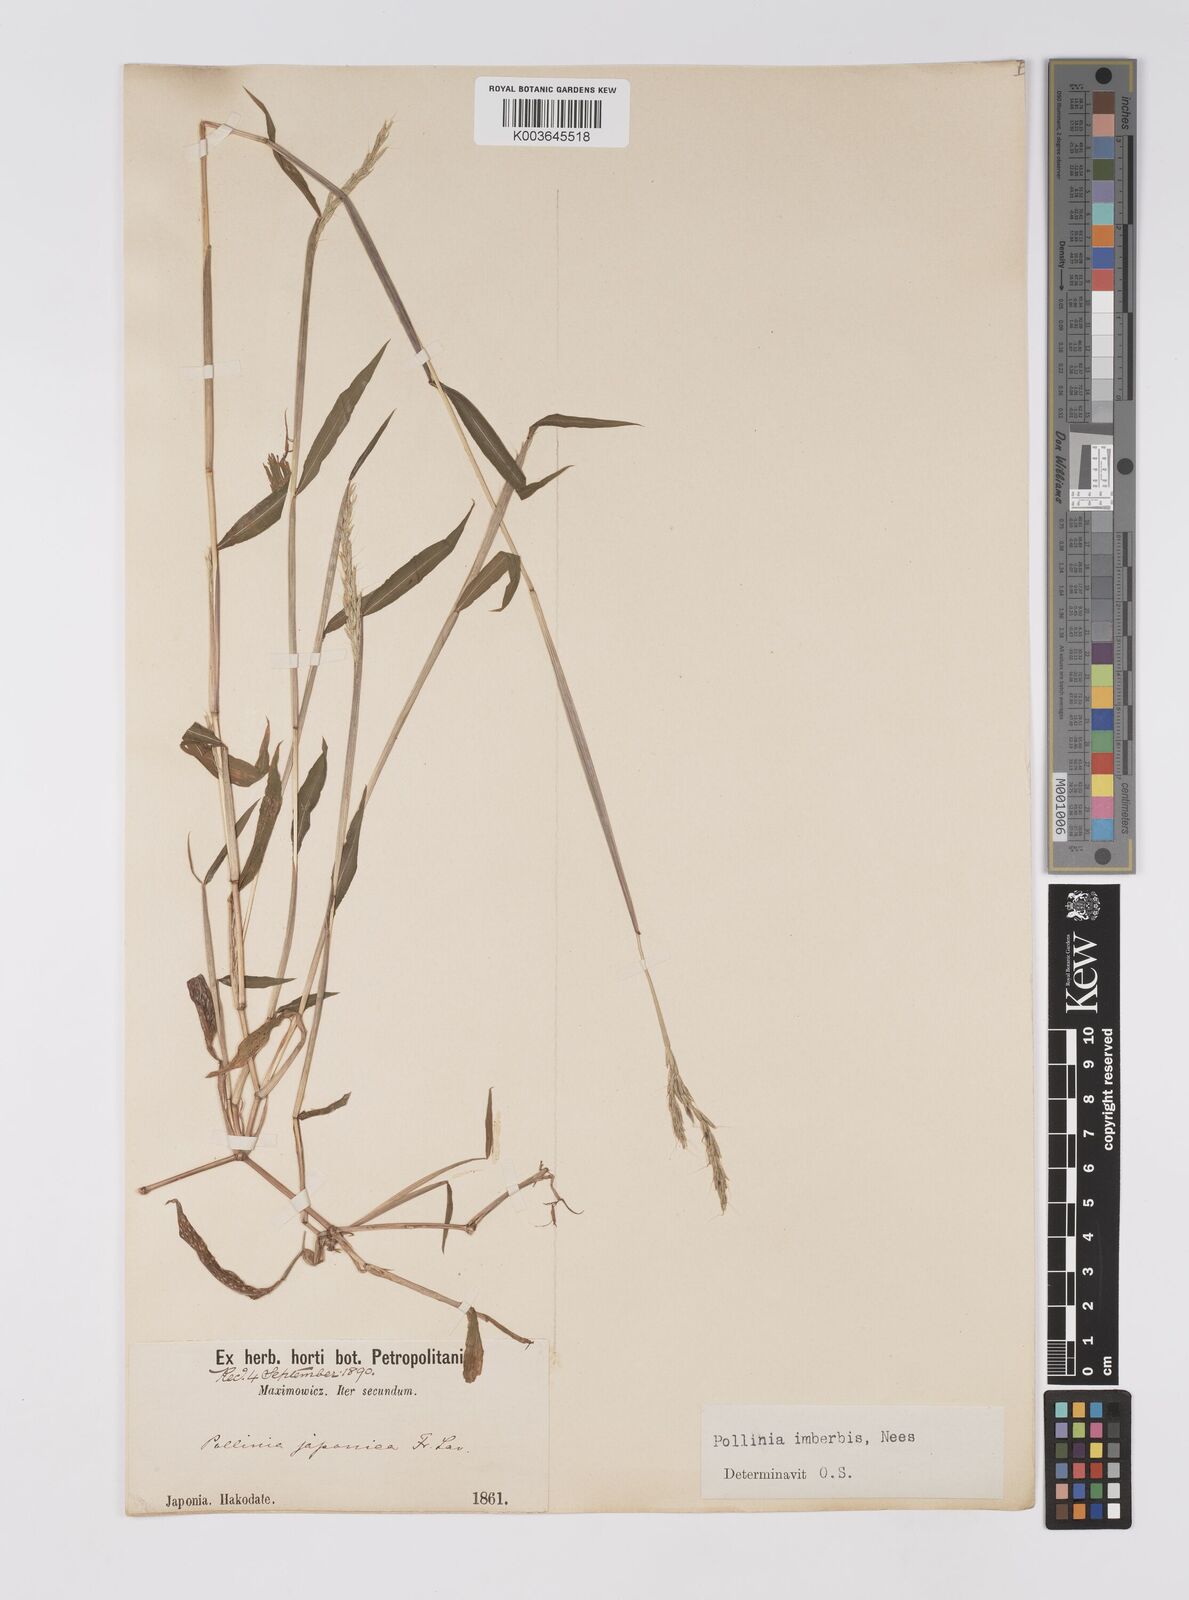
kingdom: Plantae
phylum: Tracheophyta
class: Liliopsida
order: Poales
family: Poaceae
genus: Microstegium
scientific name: Microstegium vimineum
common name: Japanese stiltgrass
